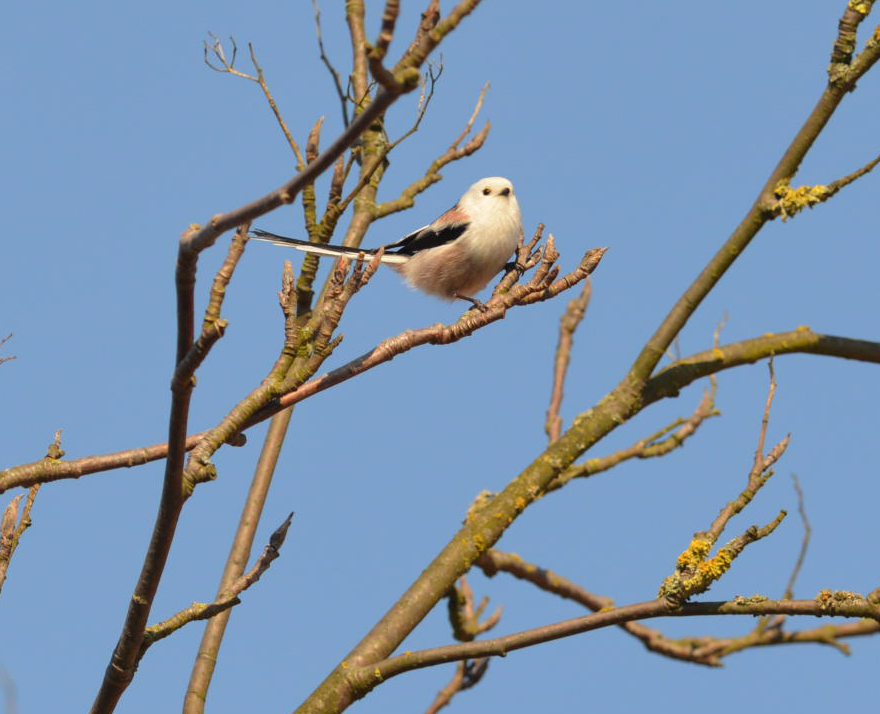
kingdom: Animalia
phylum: Chordata
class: Aves
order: Passeriformes
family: Aegithalidae
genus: Aegithalos
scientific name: Aegithalos caudatus
